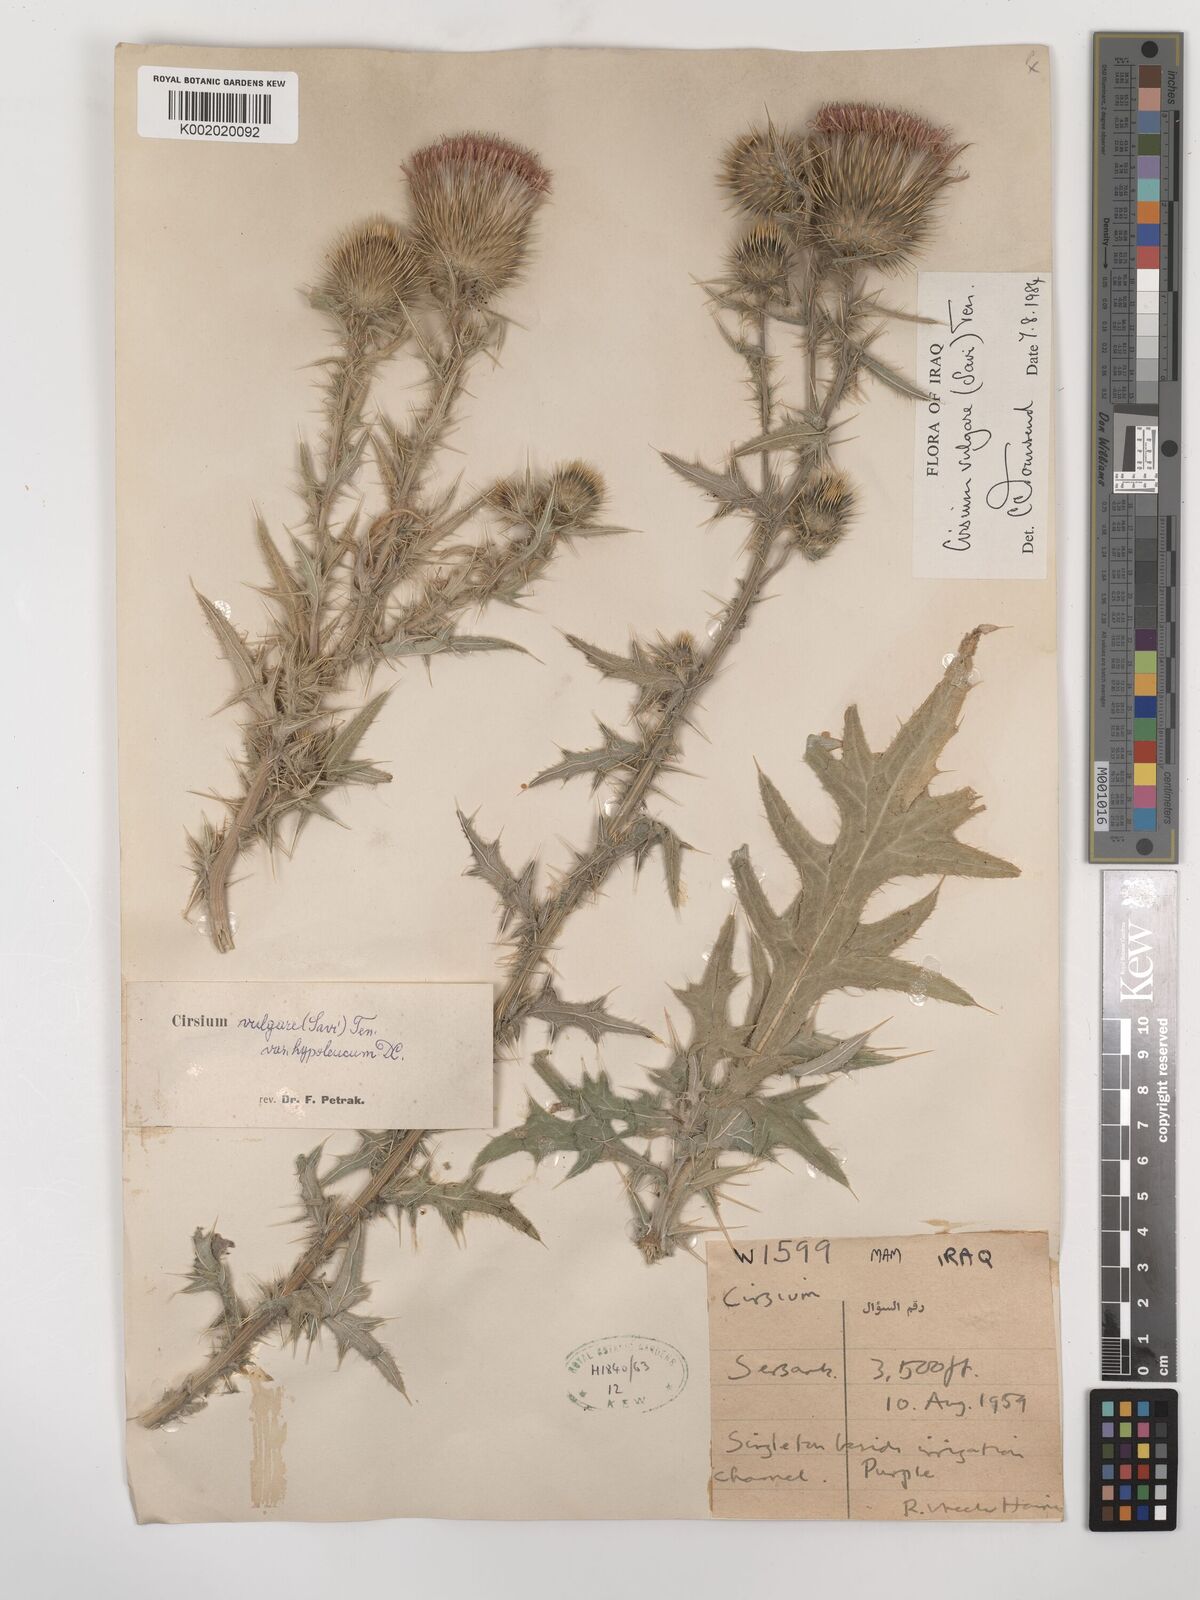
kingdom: Plantae
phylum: Tracheophyta
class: Magnoliopsida
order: Asterales
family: Asteraceae
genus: Cirsium
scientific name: Cirsium vulgare
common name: Bull thistle
